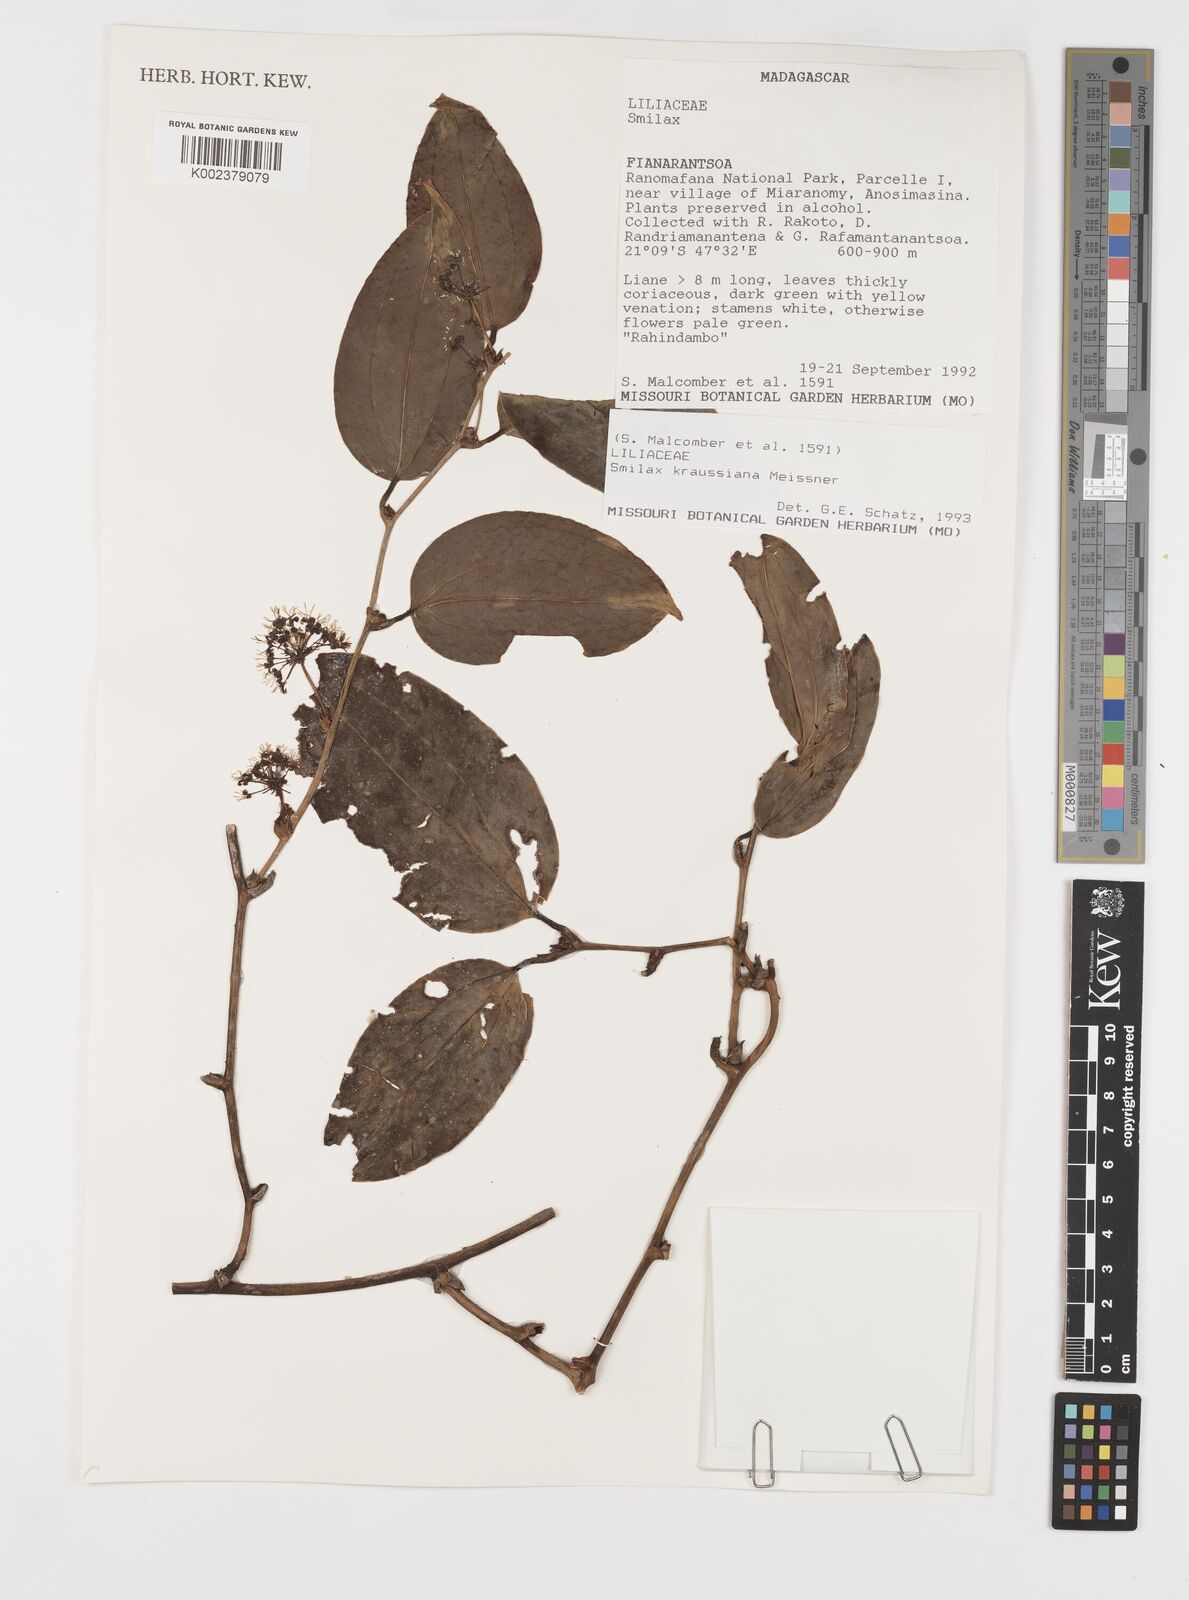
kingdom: Plantae
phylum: Tracheophyta
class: Liliopsida
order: Liliales
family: Smilacaceae
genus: Smilax
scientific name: Smilax anceps
